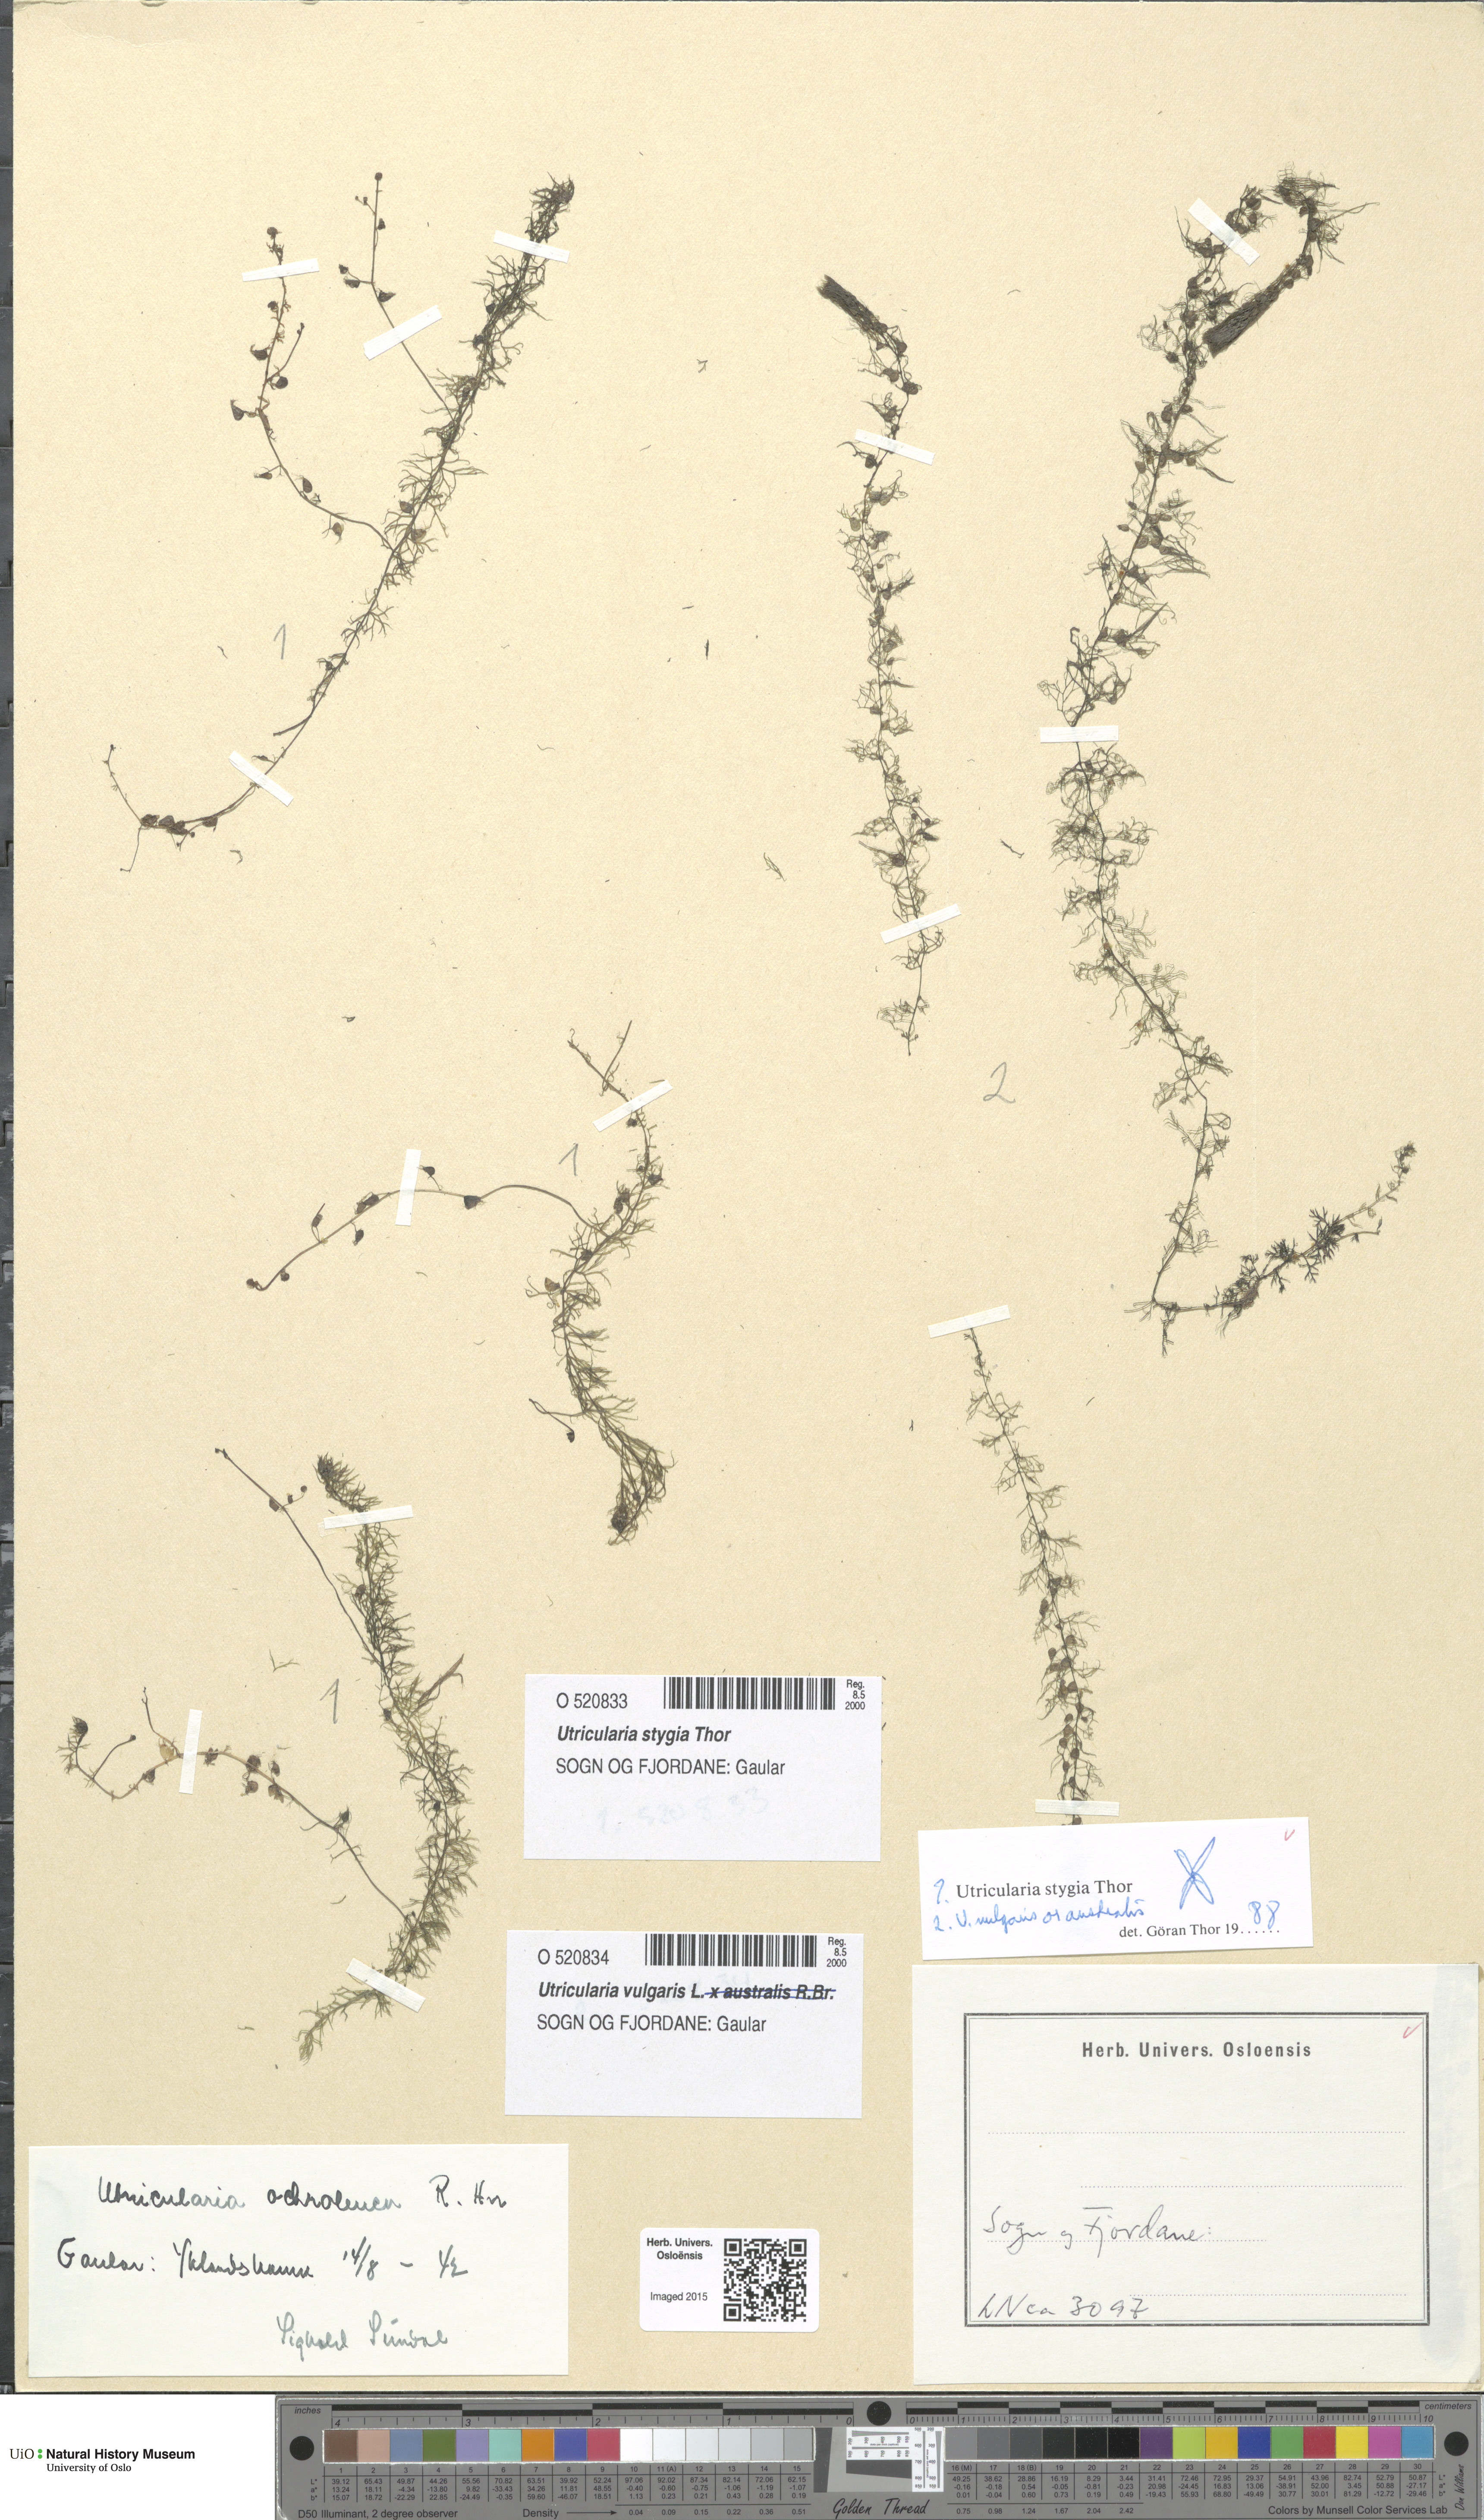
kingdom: Plantae
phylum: Tracheophyta
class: Magnoliopsida
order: Lamiales
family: Lentibulariaceae
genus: Utricularia
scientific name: Utricularia vulgaris
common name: Greater bladderwort
